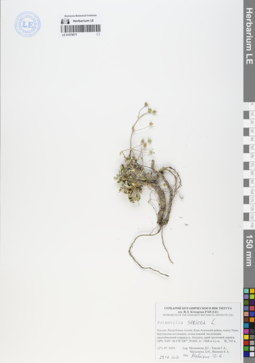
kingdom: Plantae
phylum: Tracheophyta
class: Magnoliopsida
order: Rosales
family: Rosaceae
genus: Potentilla
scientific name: Potentilla sericea
